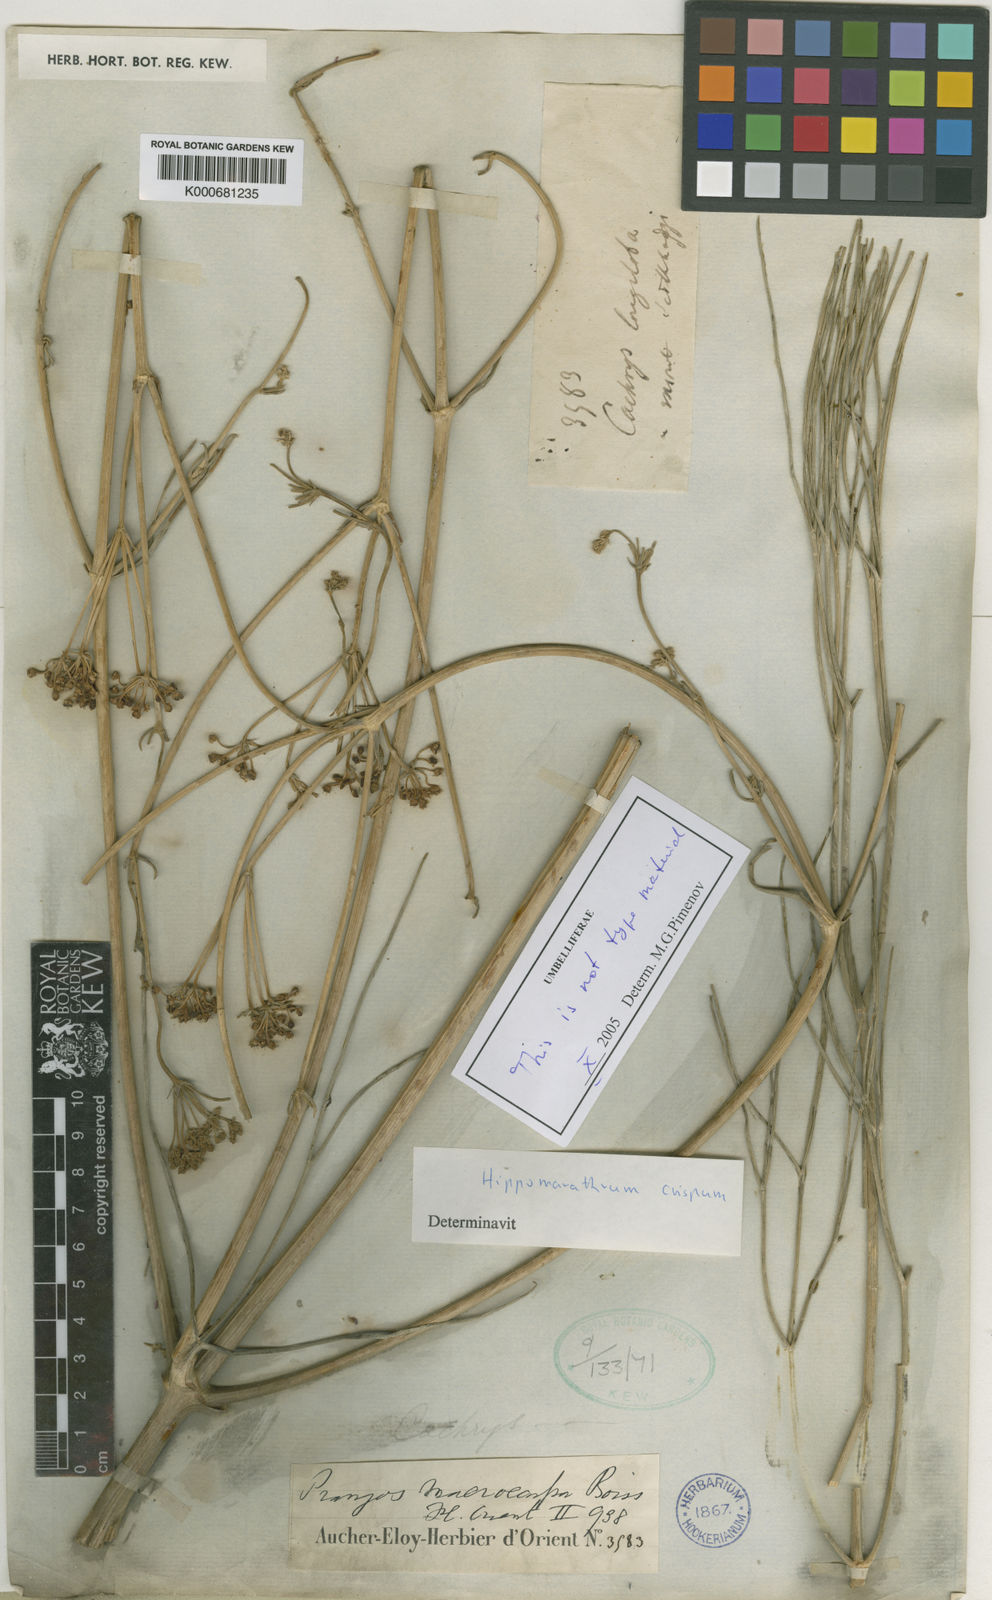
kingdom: Plantae
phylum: Tracheophyta
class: Magnoliopsida
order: Apiales
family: Apiaceae
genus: Cachrys
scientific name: Cachrys
